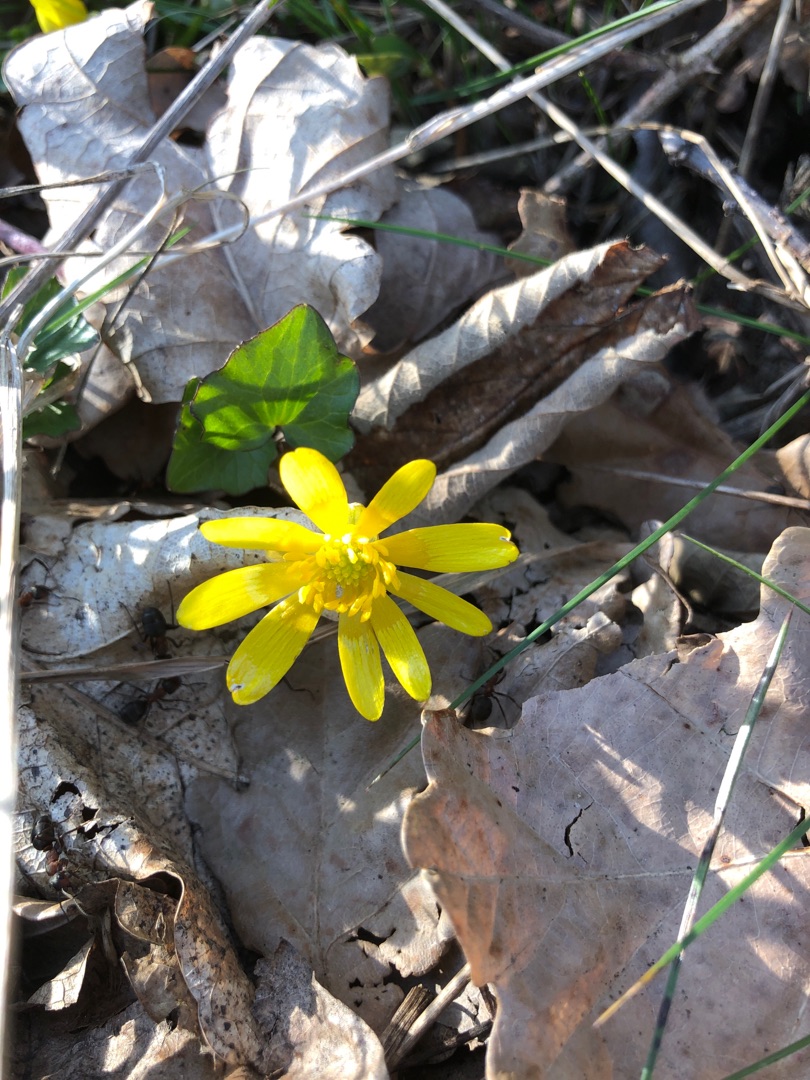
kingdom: Plantae
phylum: Tracheophyta
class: Magnoliopsida
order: Ranunculales
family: Ranunculaceae
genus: Ficaria
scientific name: Ficaria verna
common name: Vorterod
